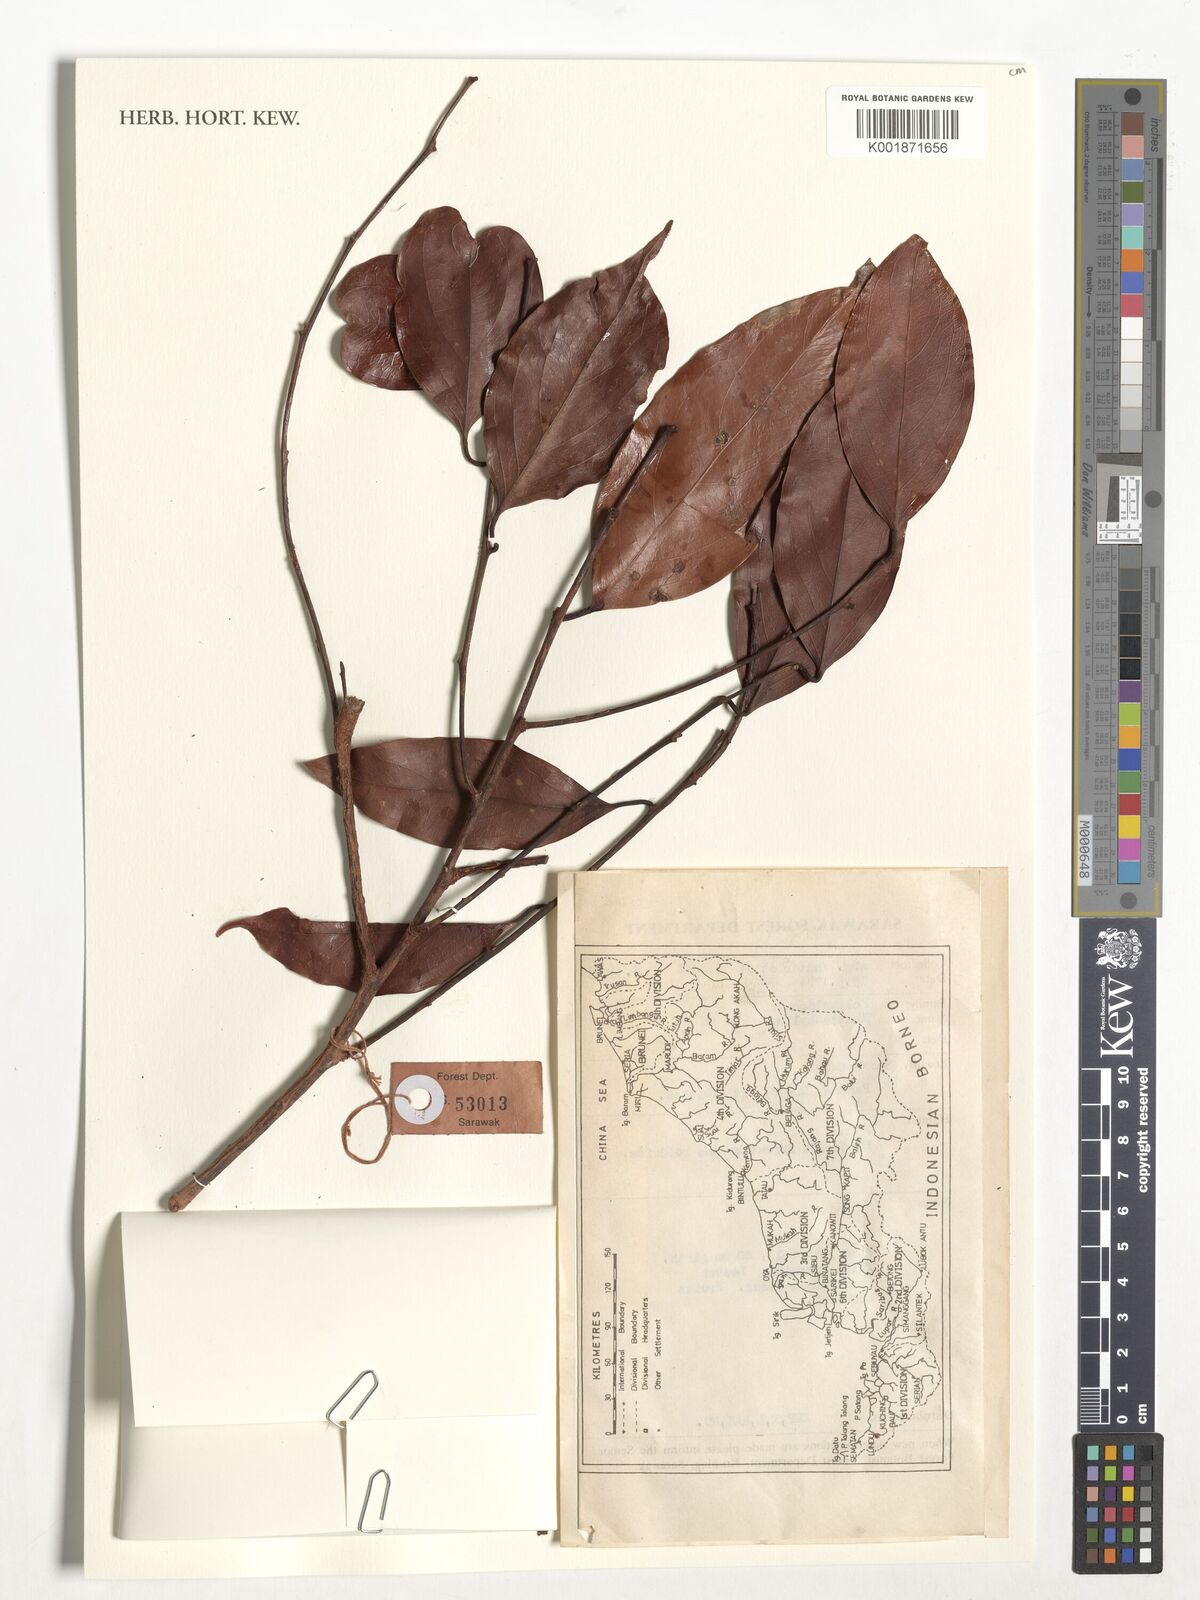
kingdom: Plantae
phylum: Tracheophyta
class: Magnoliopsida
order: Fabales
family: Polygalaceae
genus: Xanthophyllum
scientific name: Xanthophyllum
